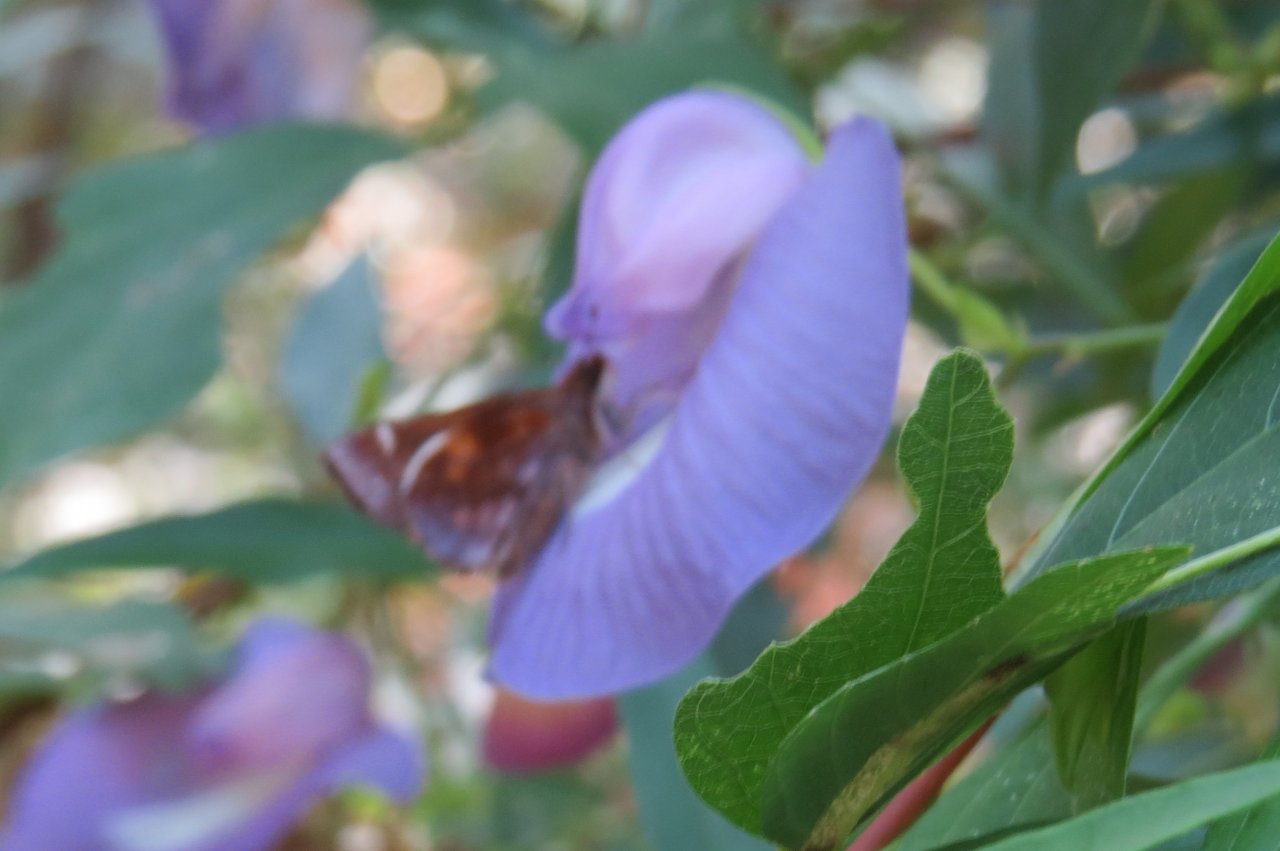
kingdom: Animalia
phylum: Arthropoda
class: Insecta
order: Lepidoptera
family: Hesperiidae
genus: Lon
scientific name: Lon zabulon
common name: Zabulon Skipper
